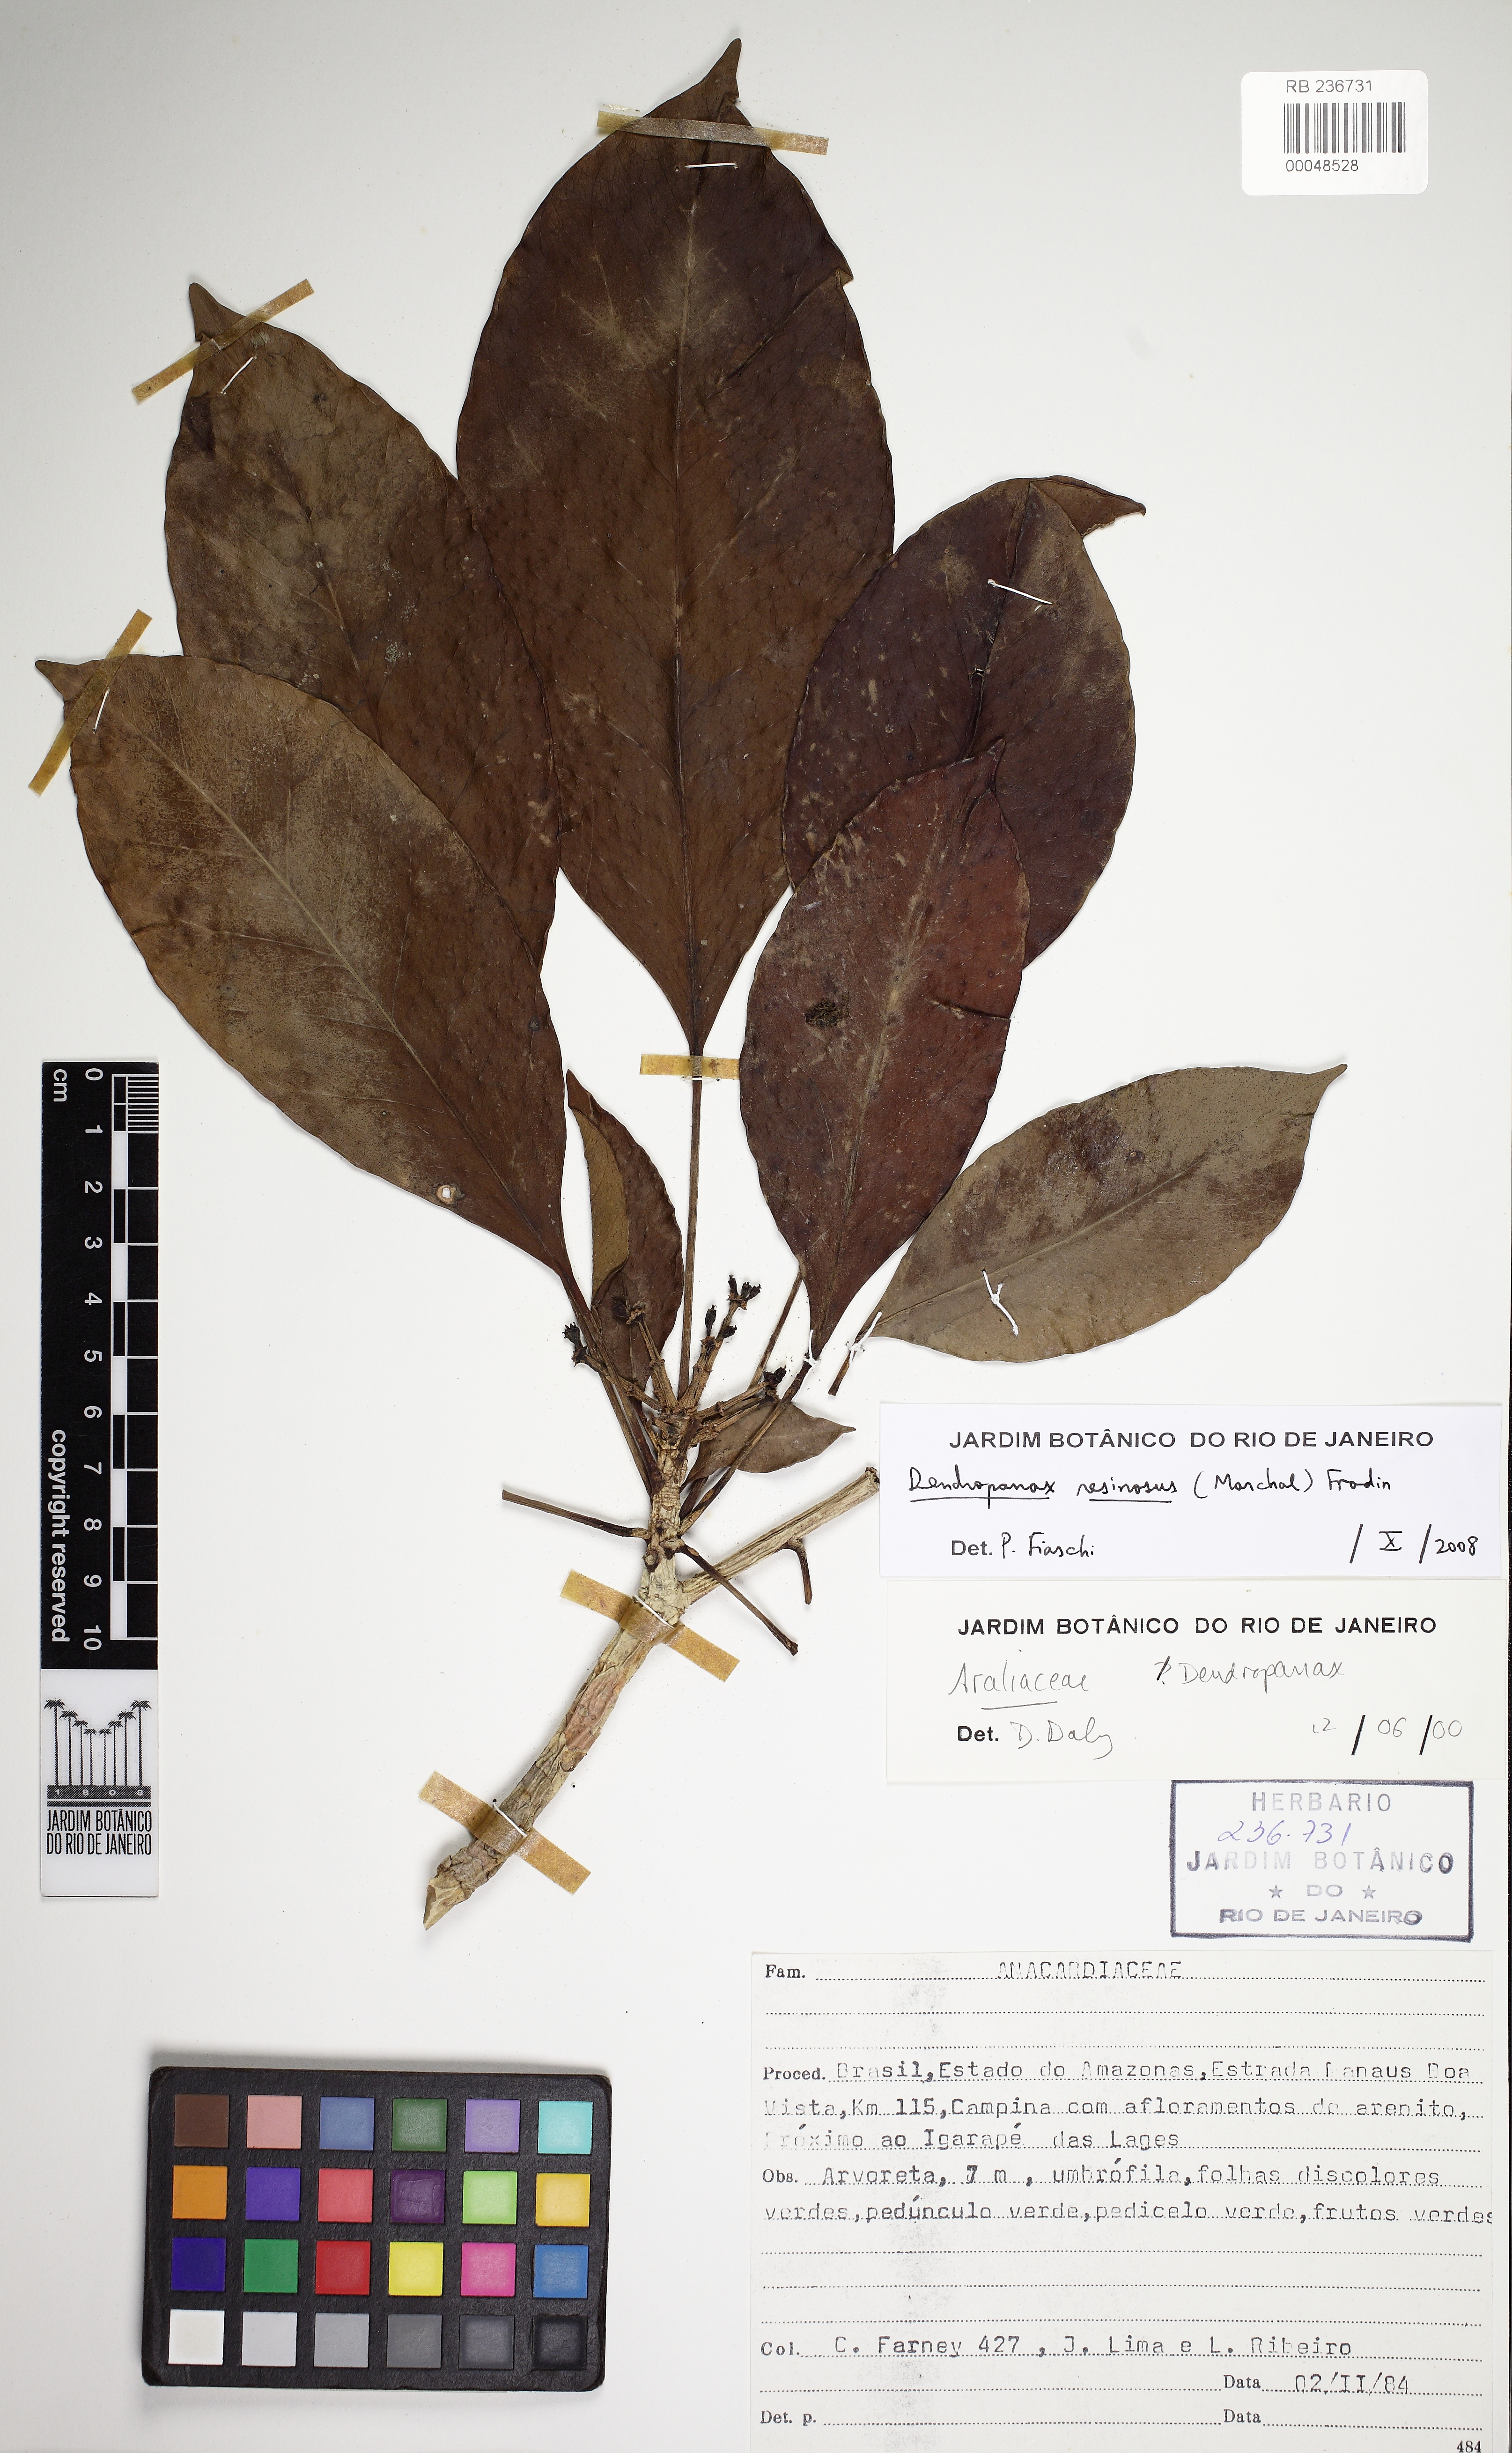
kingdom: Plantae
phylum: Tracheophyta
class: Magnoliopsida
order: Apiales
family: Araliaceae
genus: Dendropanax
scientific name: Dendropanax resinosus
